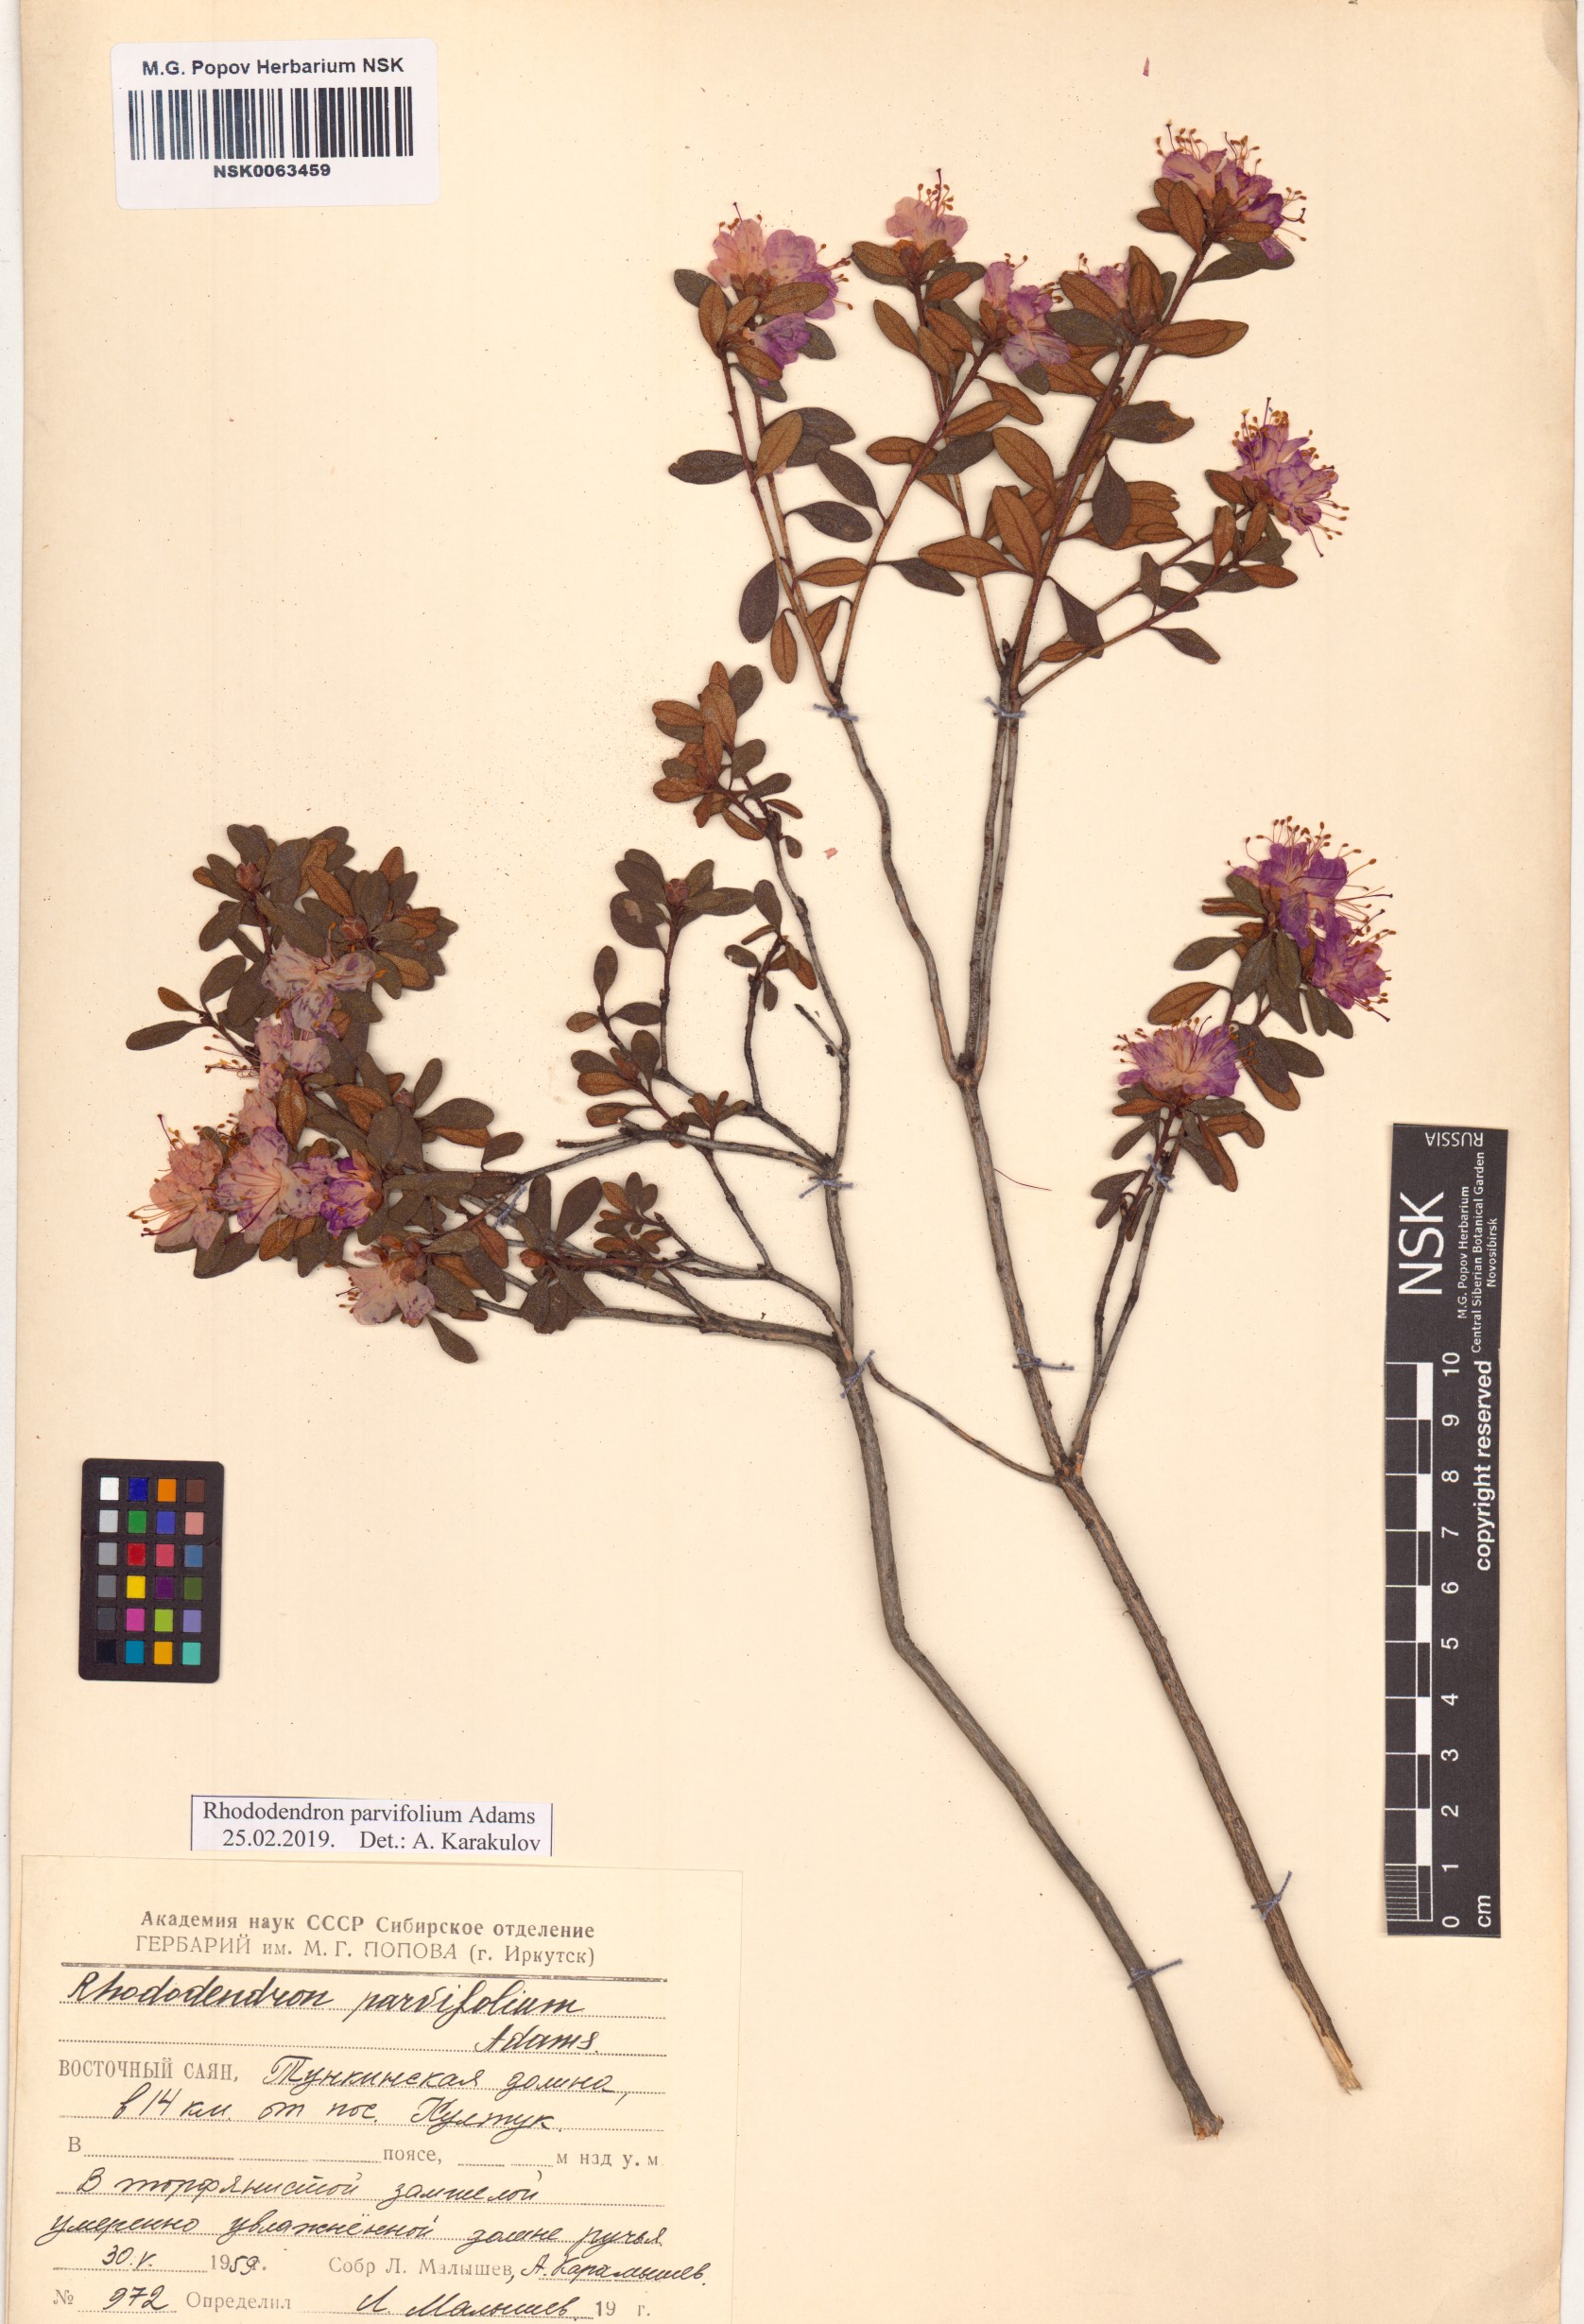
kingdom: Plantae
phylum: Tracheophyta
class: Magnoliopsida
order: Ericales
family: Ericaceae
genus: Rhododendron
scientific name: Rhododendron parvifolium
